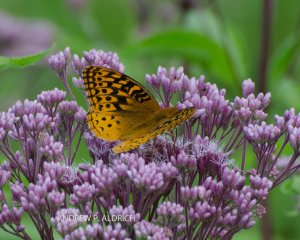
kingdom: Animalia
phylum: Arthropoda
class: Insecta
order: Lepidoptera
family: Nymphalidae
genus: Speyeria
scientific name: Speyeria cybele
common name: Great Spangled Fritillary
